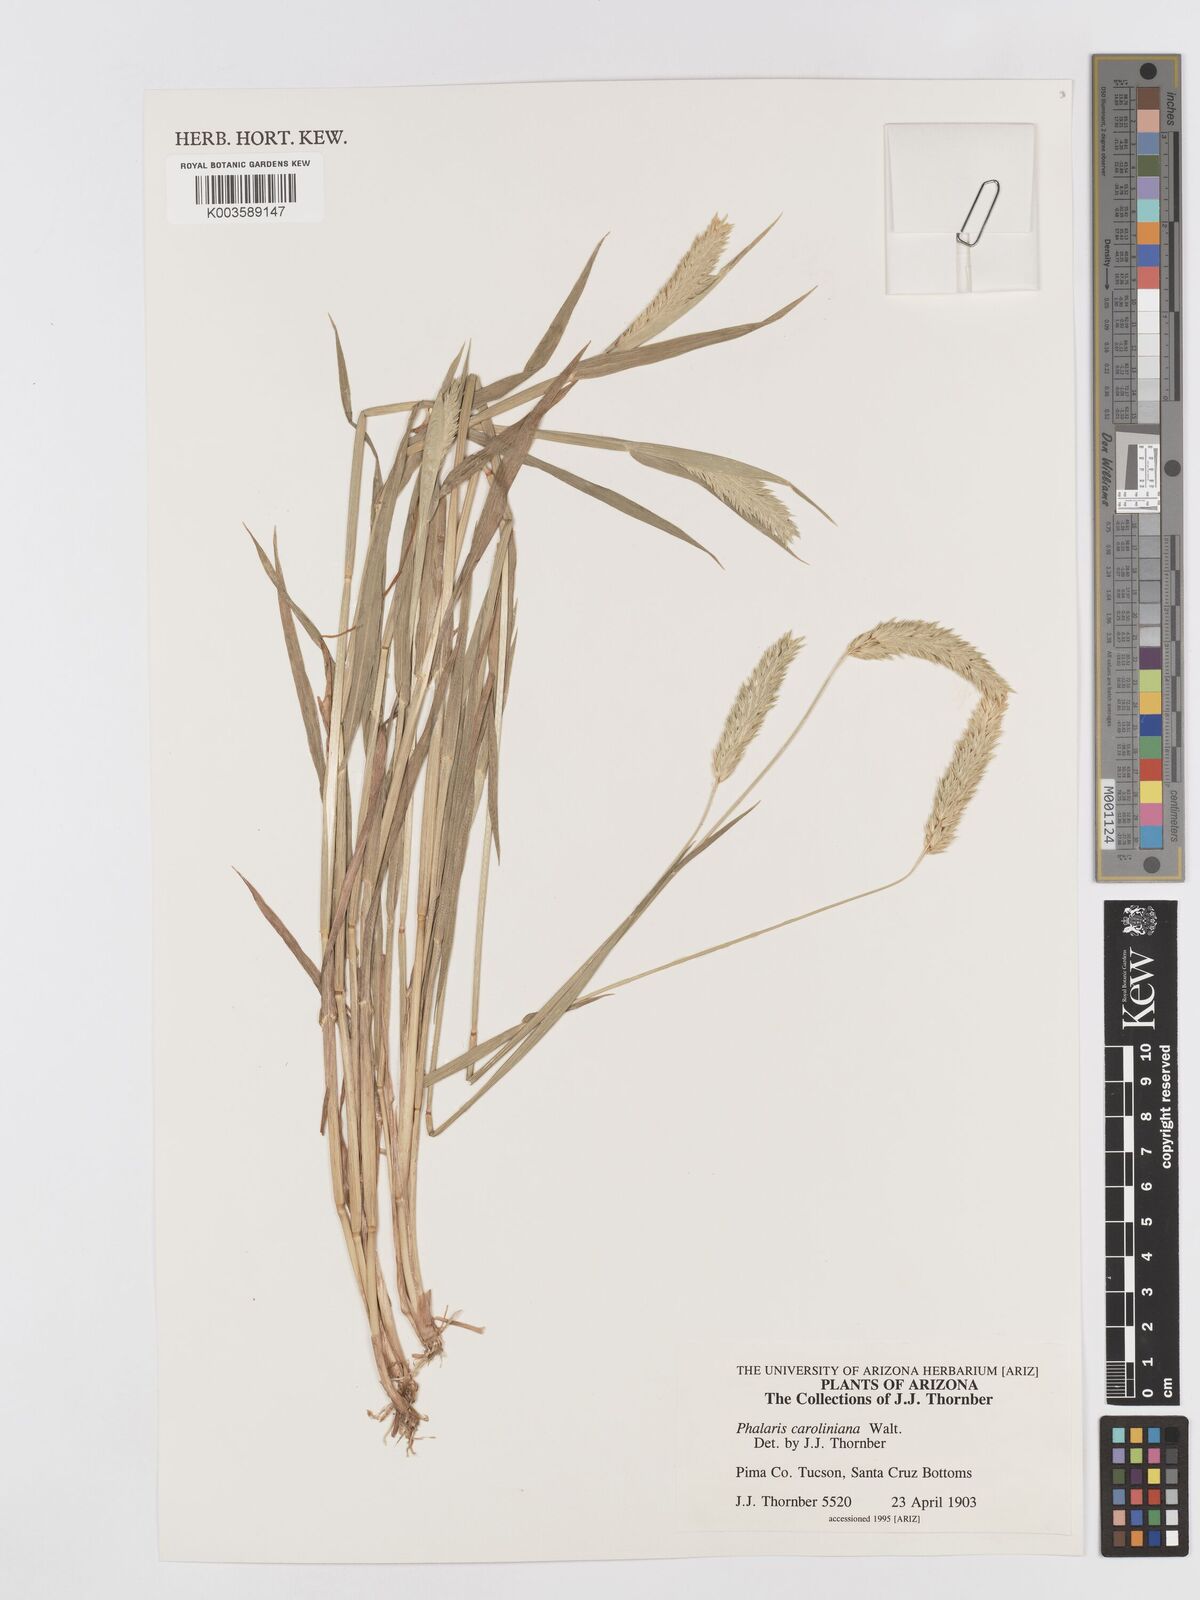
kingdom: Plantae
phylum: Tracheophyta
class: Liliopsida
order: Poales
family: Poaceae
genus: Phalaris
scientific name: Phalaris caroliniana
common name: May grass
